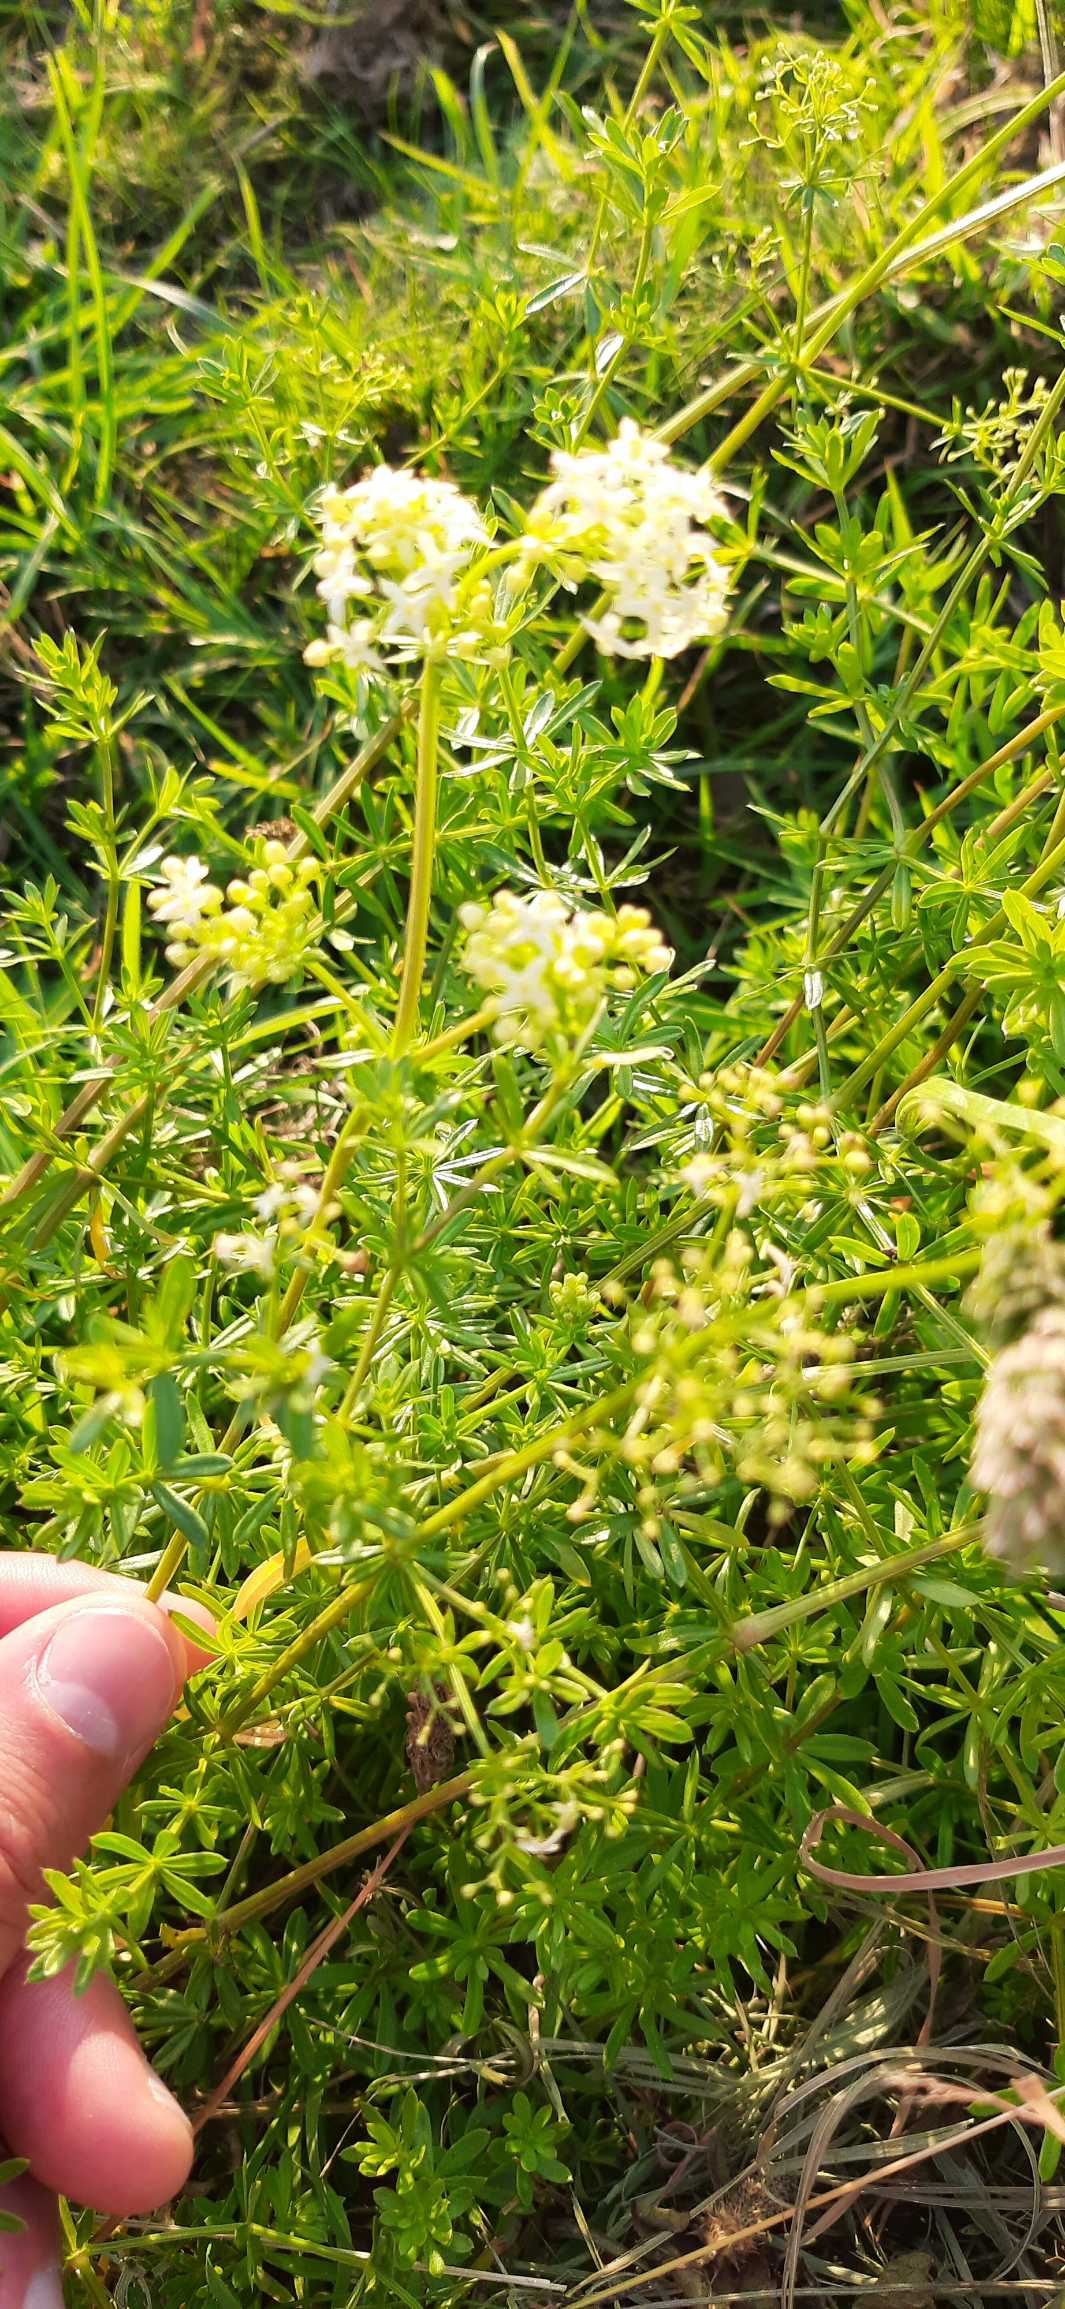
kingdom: Plantae
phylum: Tracheophyta
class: Magnoliopsida
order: Gentianales
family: Rubiaceae
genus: Galium
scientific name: Galium mollugo
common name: Hvid snerre
